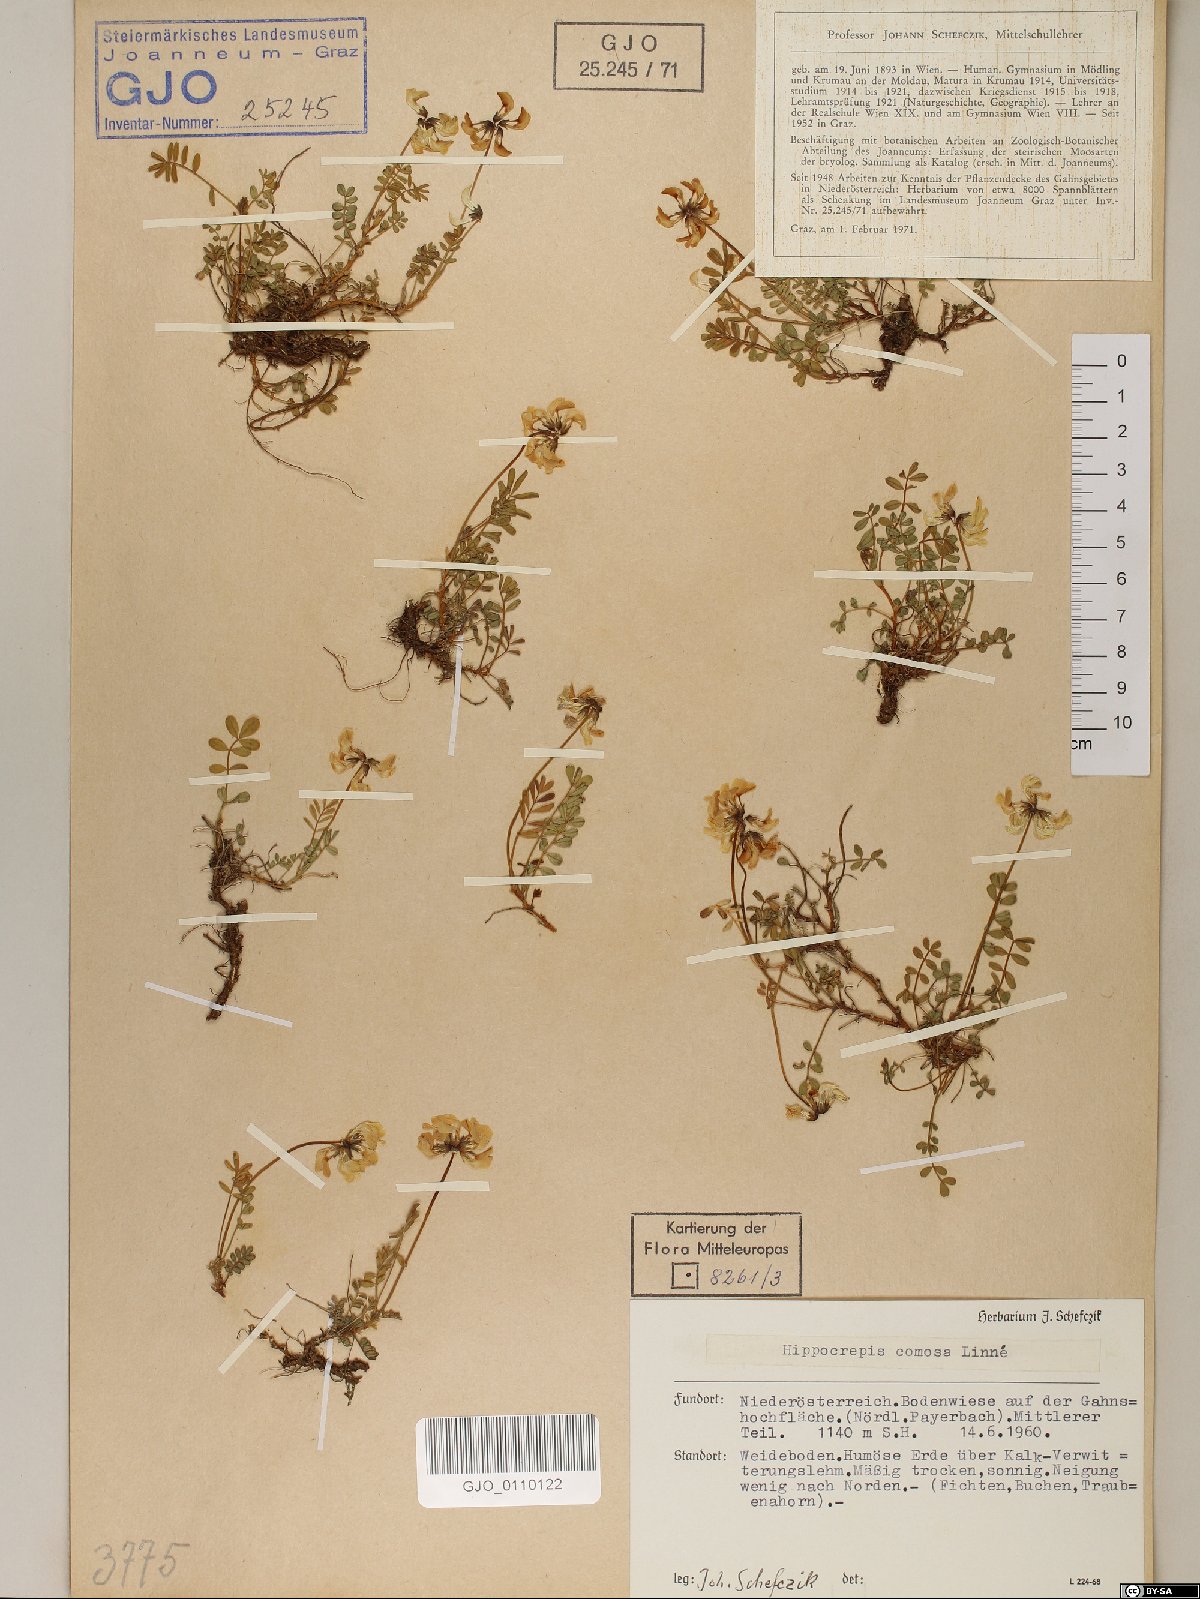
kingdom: Plantae
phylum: Tracheophyta
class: Magnoliopsida
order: Fabales
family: Fabaceae
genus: Hippocrepis
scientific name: Hippocrepis comosa
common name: Horseshoe vetch
